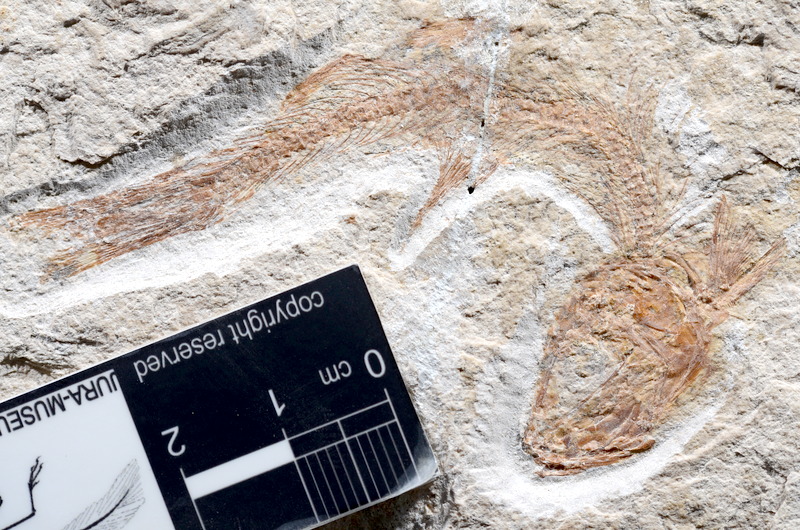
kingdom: Animalia
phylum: Chordata
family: Ascalaboidae
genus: Tharsis
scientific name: Tharsis dubius
